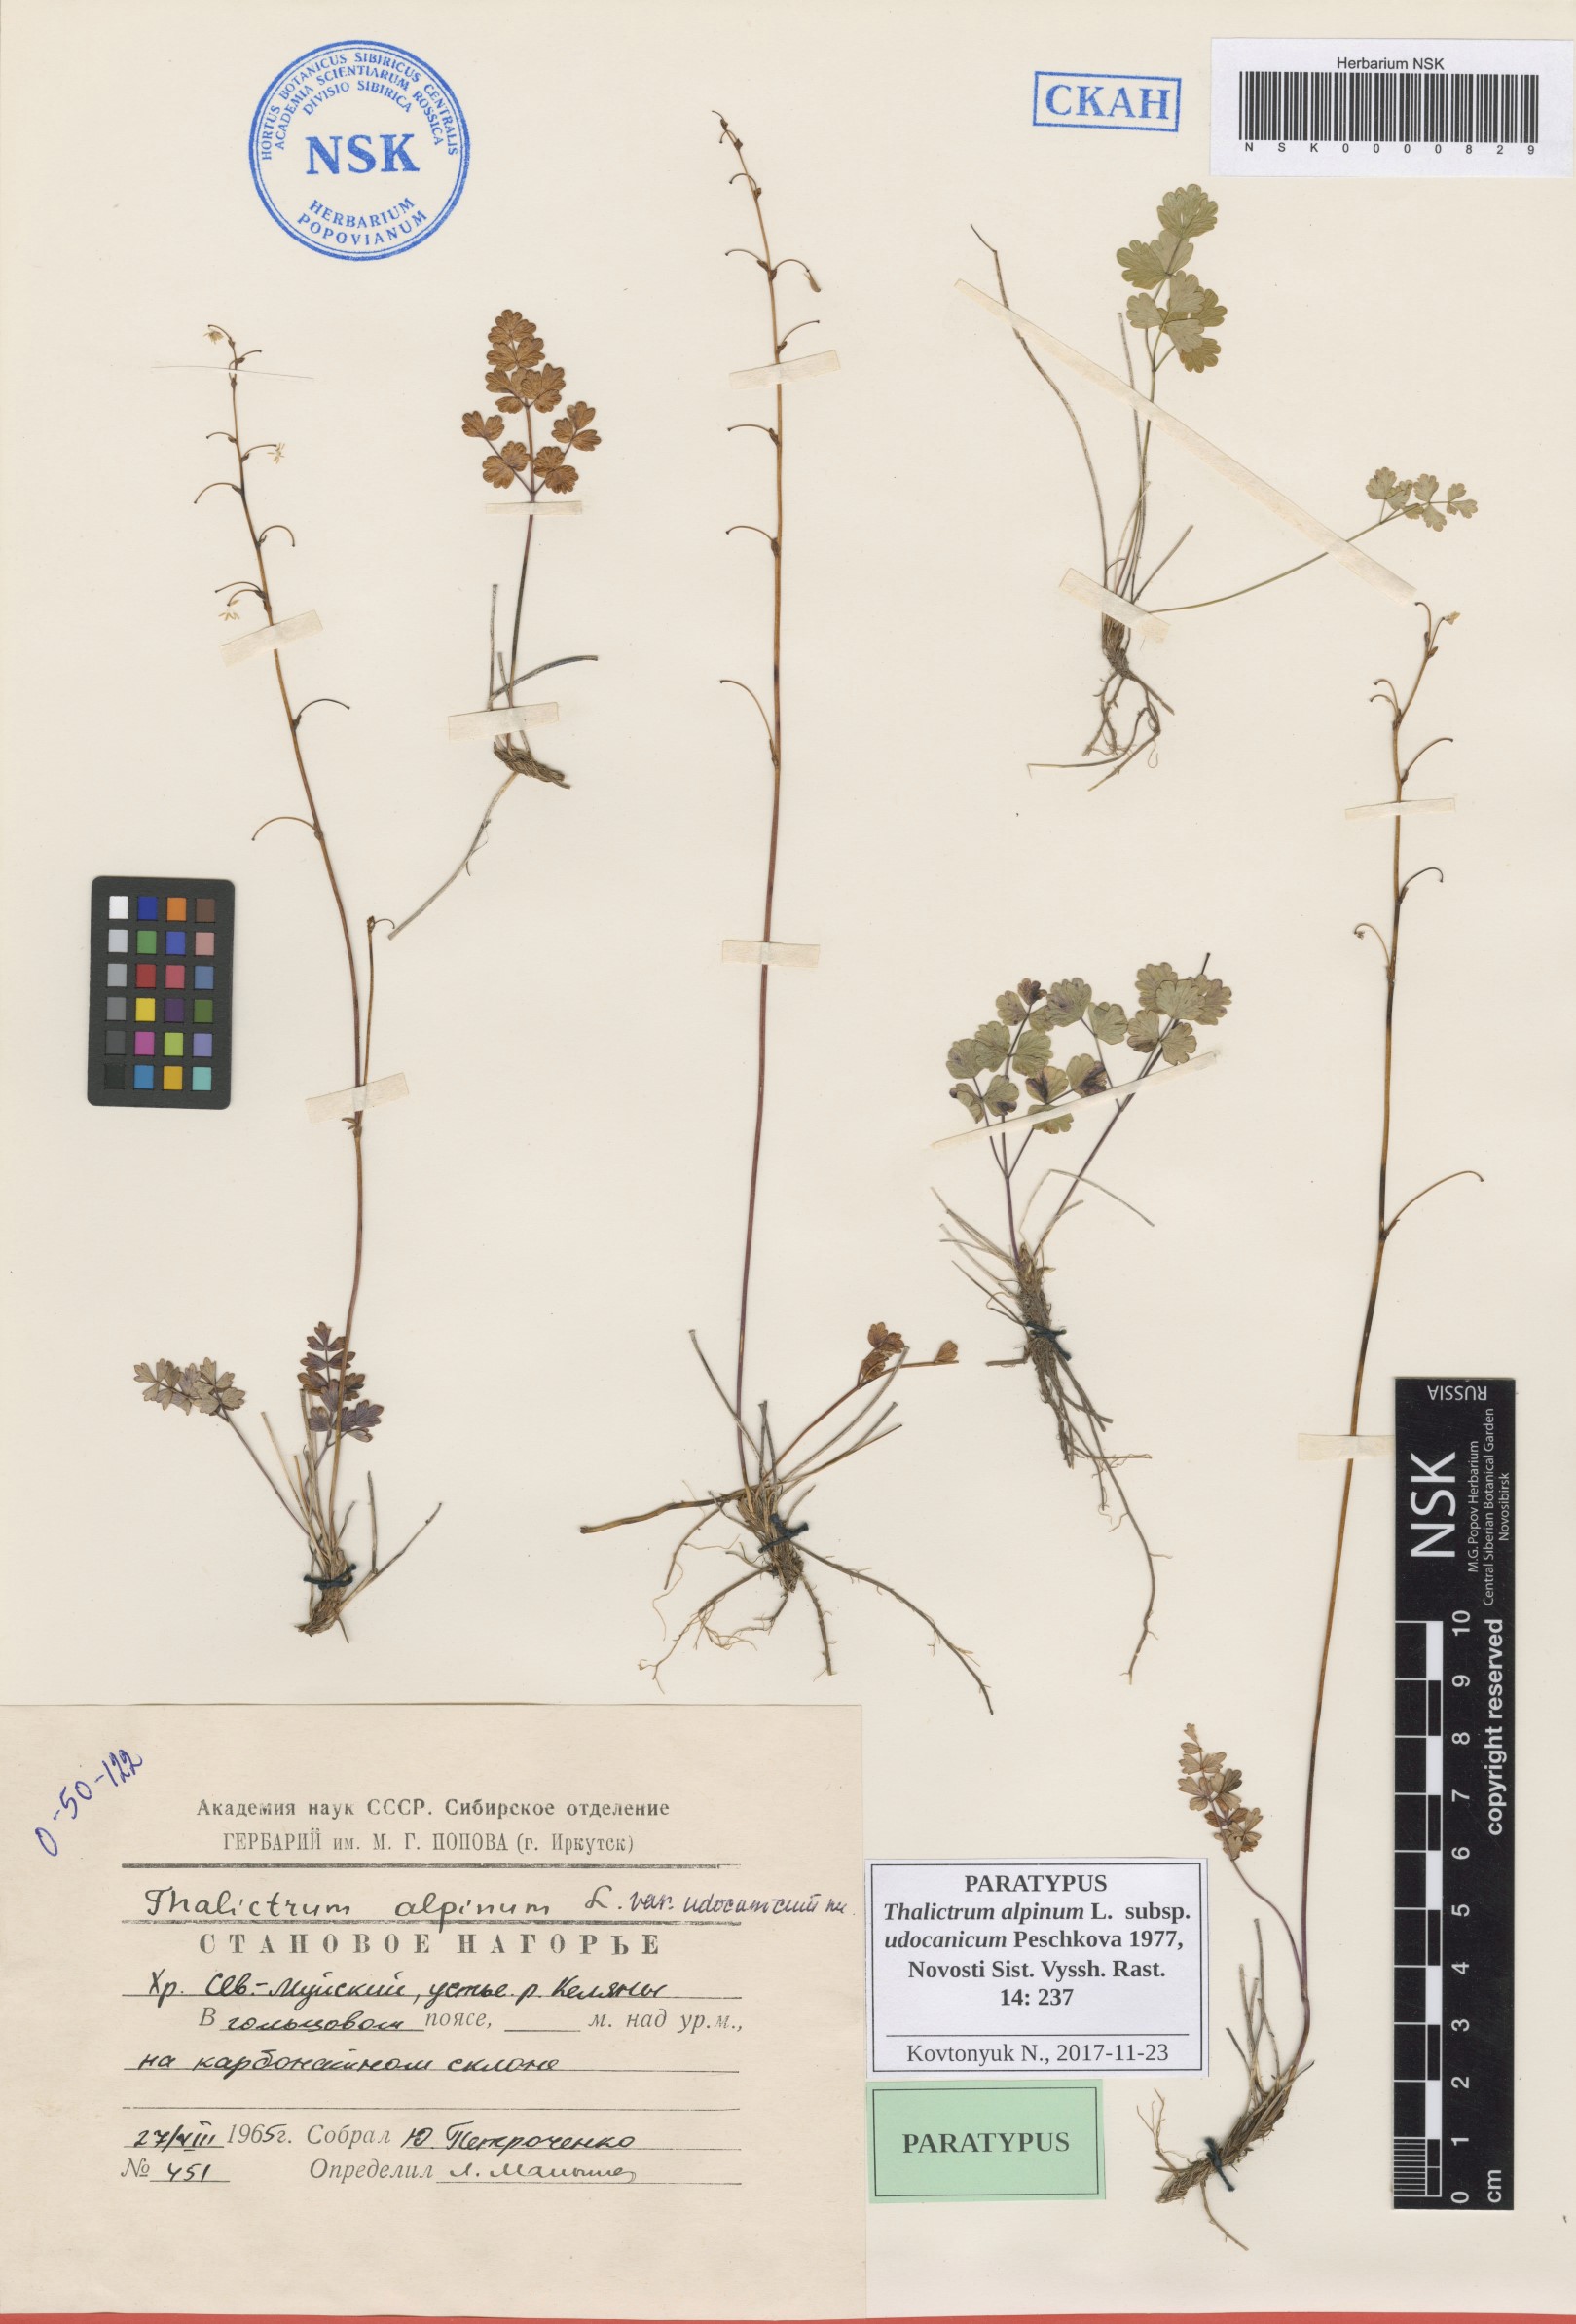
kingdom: Plantae
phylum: Tracheophyta
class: Magnoliopsida
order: Ranunculales
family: Ranunculaceae
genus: Thalictrum
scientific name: Thalictrum alpinum
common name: Alpine meadow-rue
